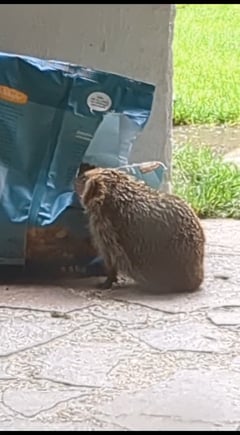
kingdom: Animalia
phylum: Chordata
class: Mammalia
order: Erinaceomorpha
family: Erinaceidae
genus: Erinaceus
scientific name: Erinaceus europaeus
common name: West european hedgehog
